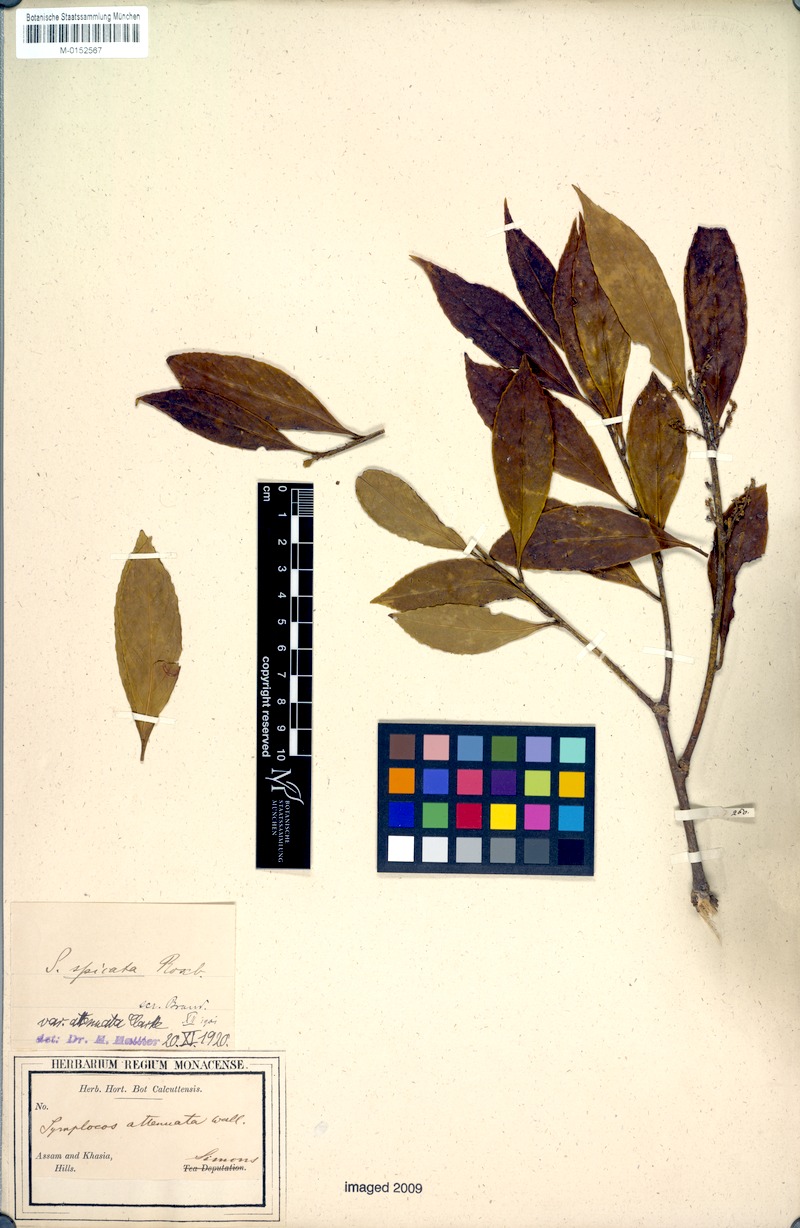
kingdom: Plantae
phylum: Tracheophyta
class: Magnoliopsida
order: Ericales
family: Symplocaceae
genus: Symplocos
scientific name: Symplocos acuminata
